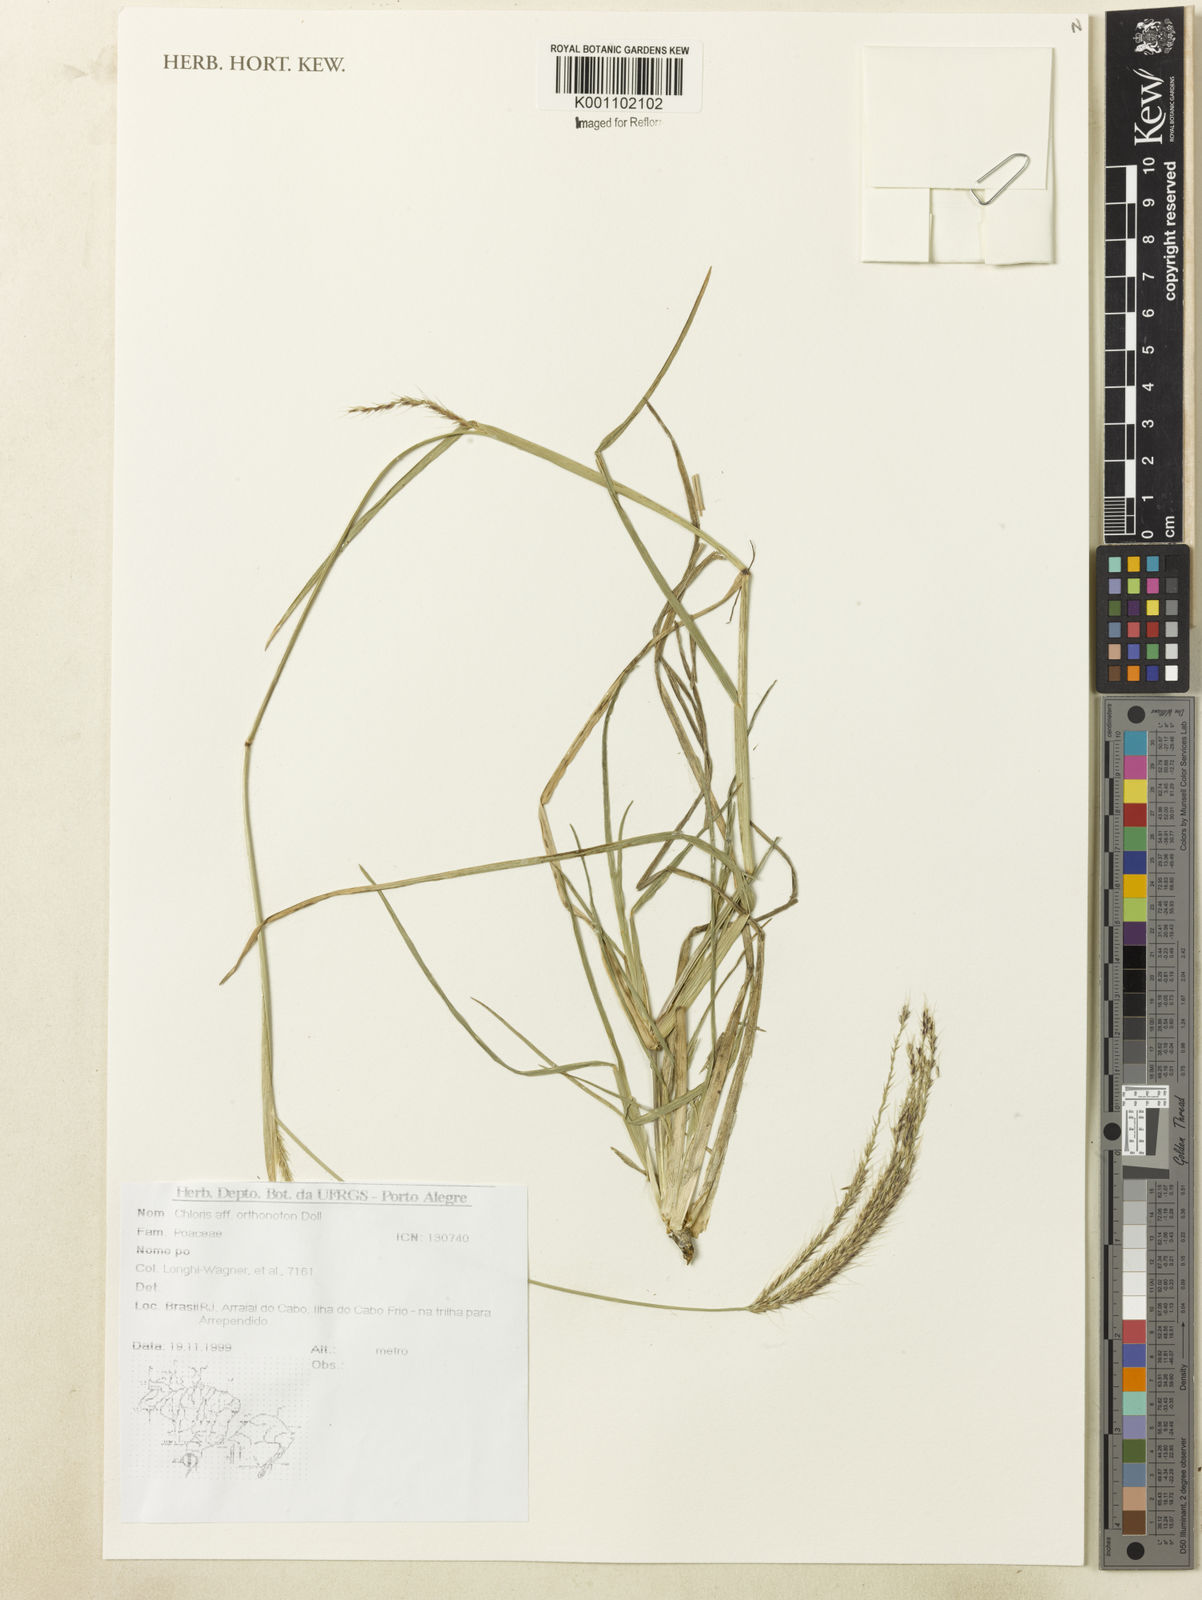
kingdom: Plantae
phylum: Tracheophyta
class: Liliopsida
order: Poales
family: Poaceae
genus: Chloris
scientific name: Chloris
